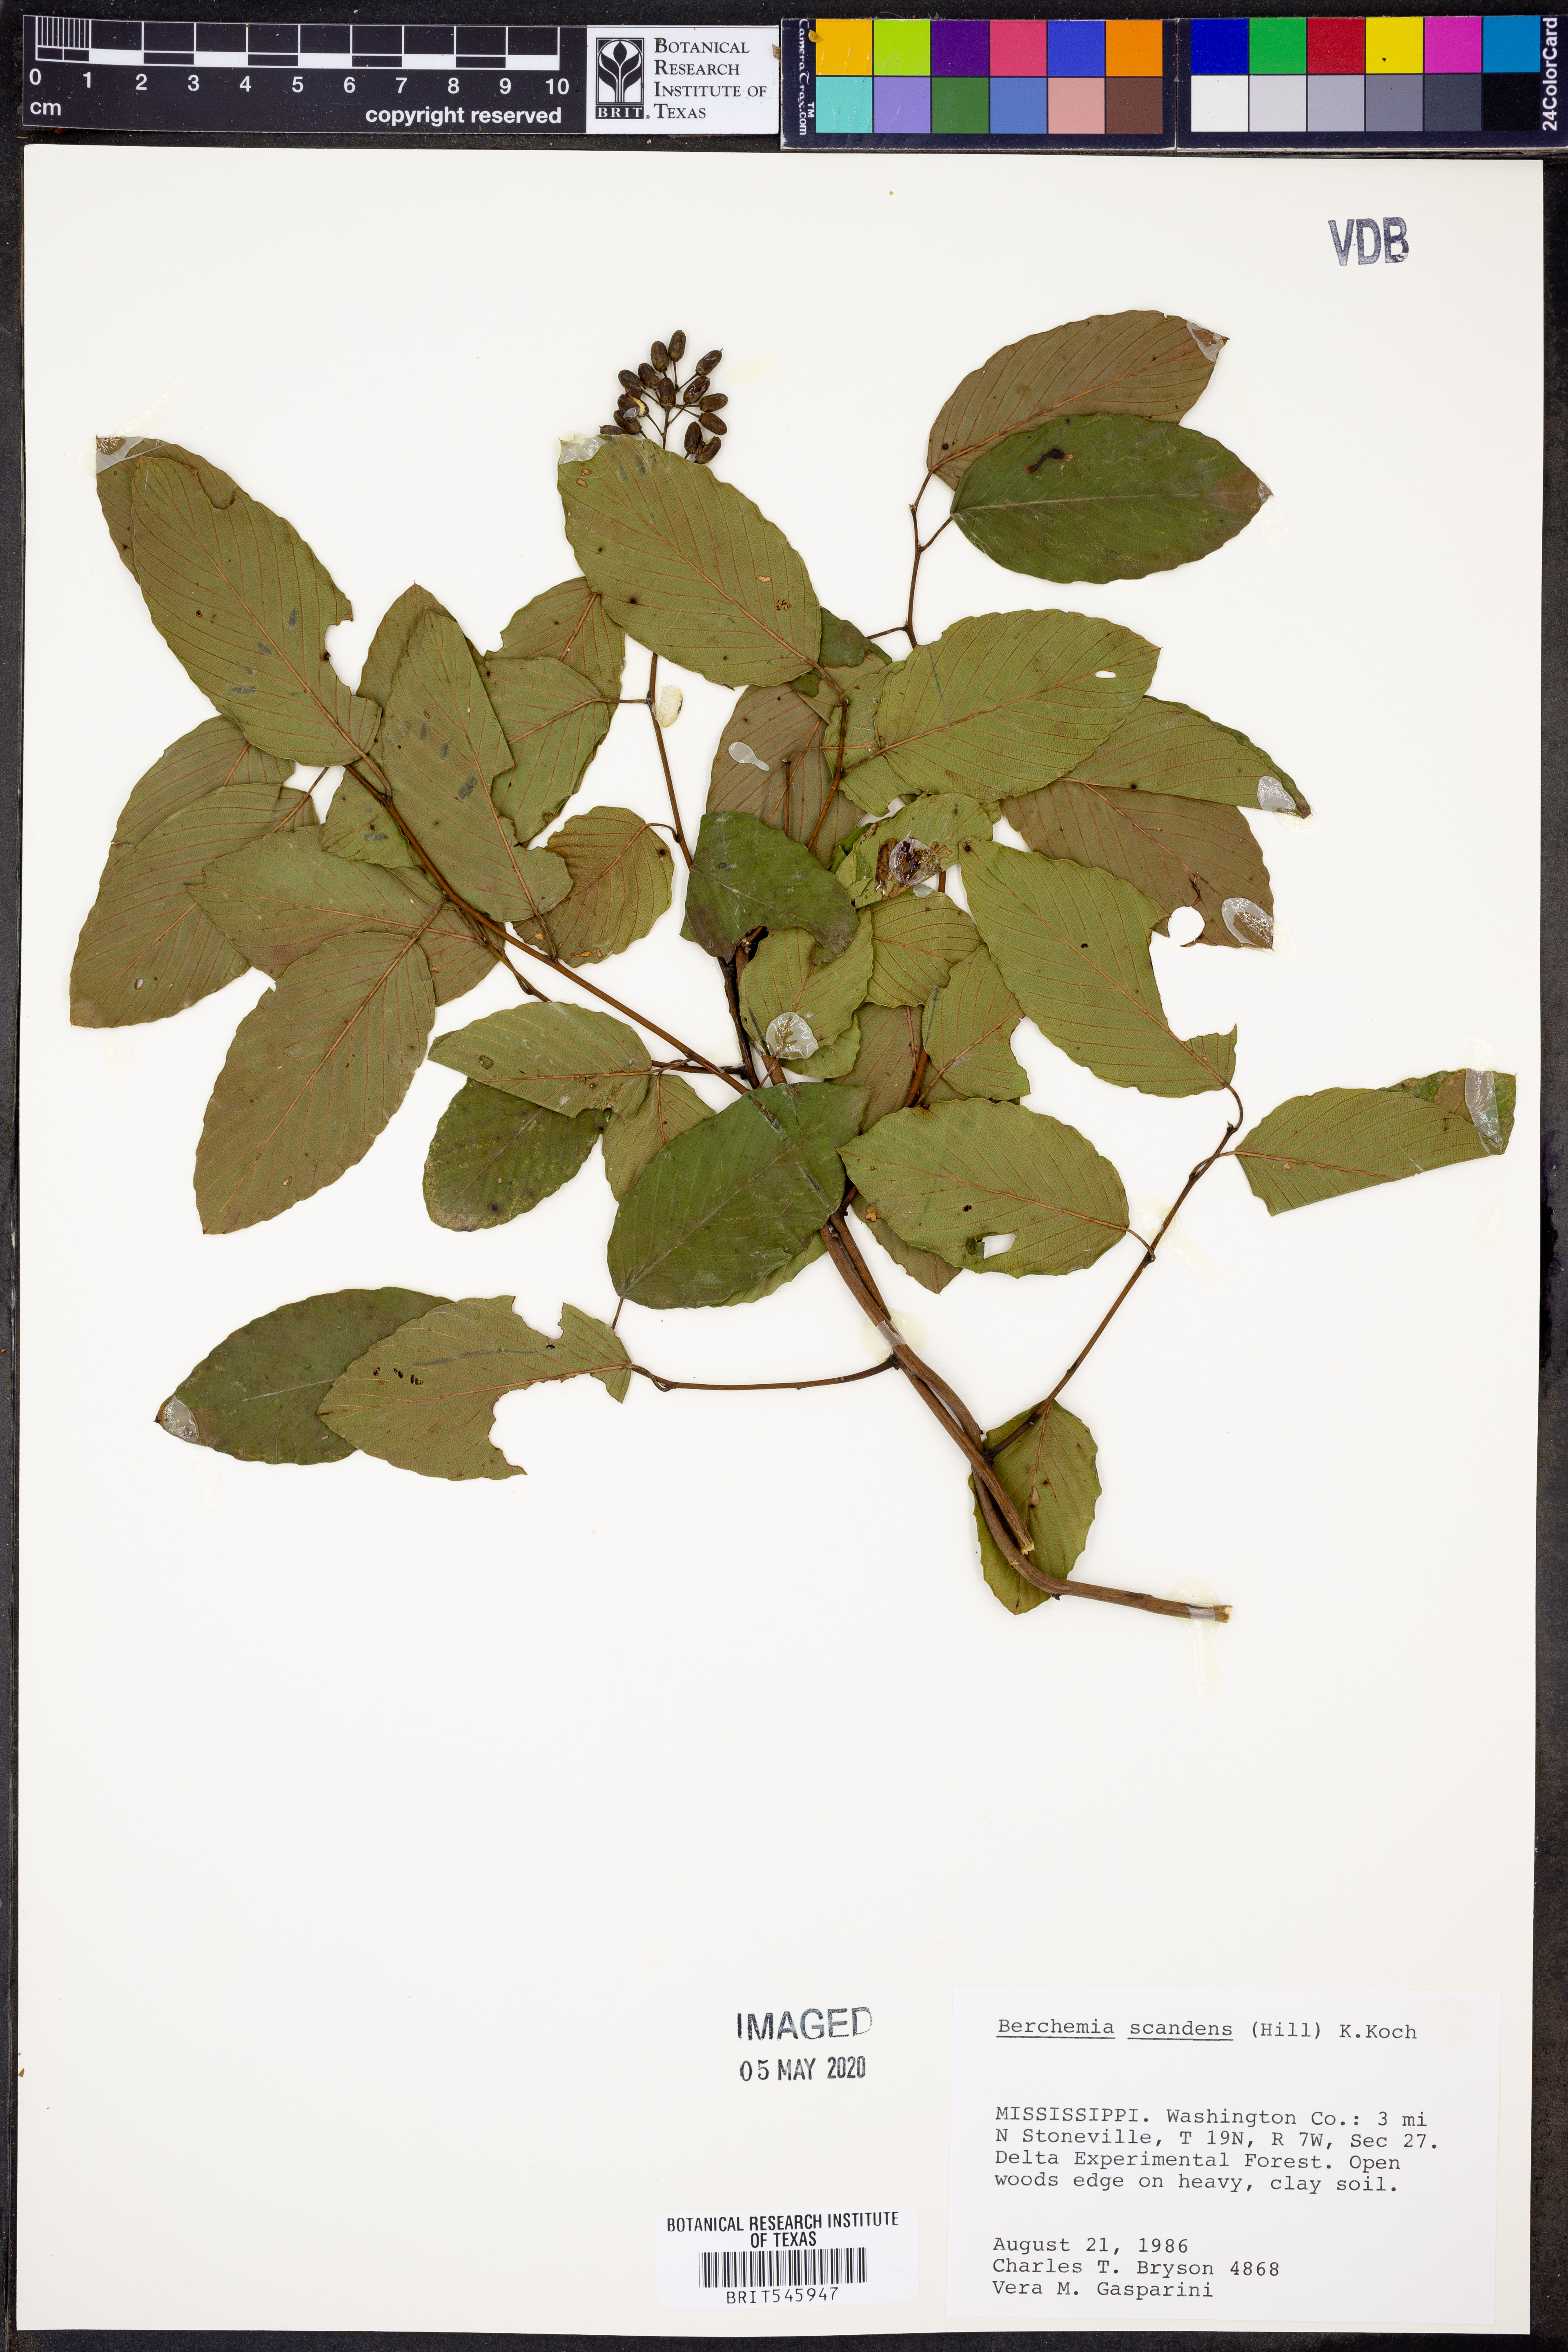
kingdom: Plantae
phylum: Tracheophyta
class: Magnoliopsida
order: Rosales
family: Rhamnaceae
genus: Berchemia
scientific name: Berchemia scandens
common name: Supplejack
